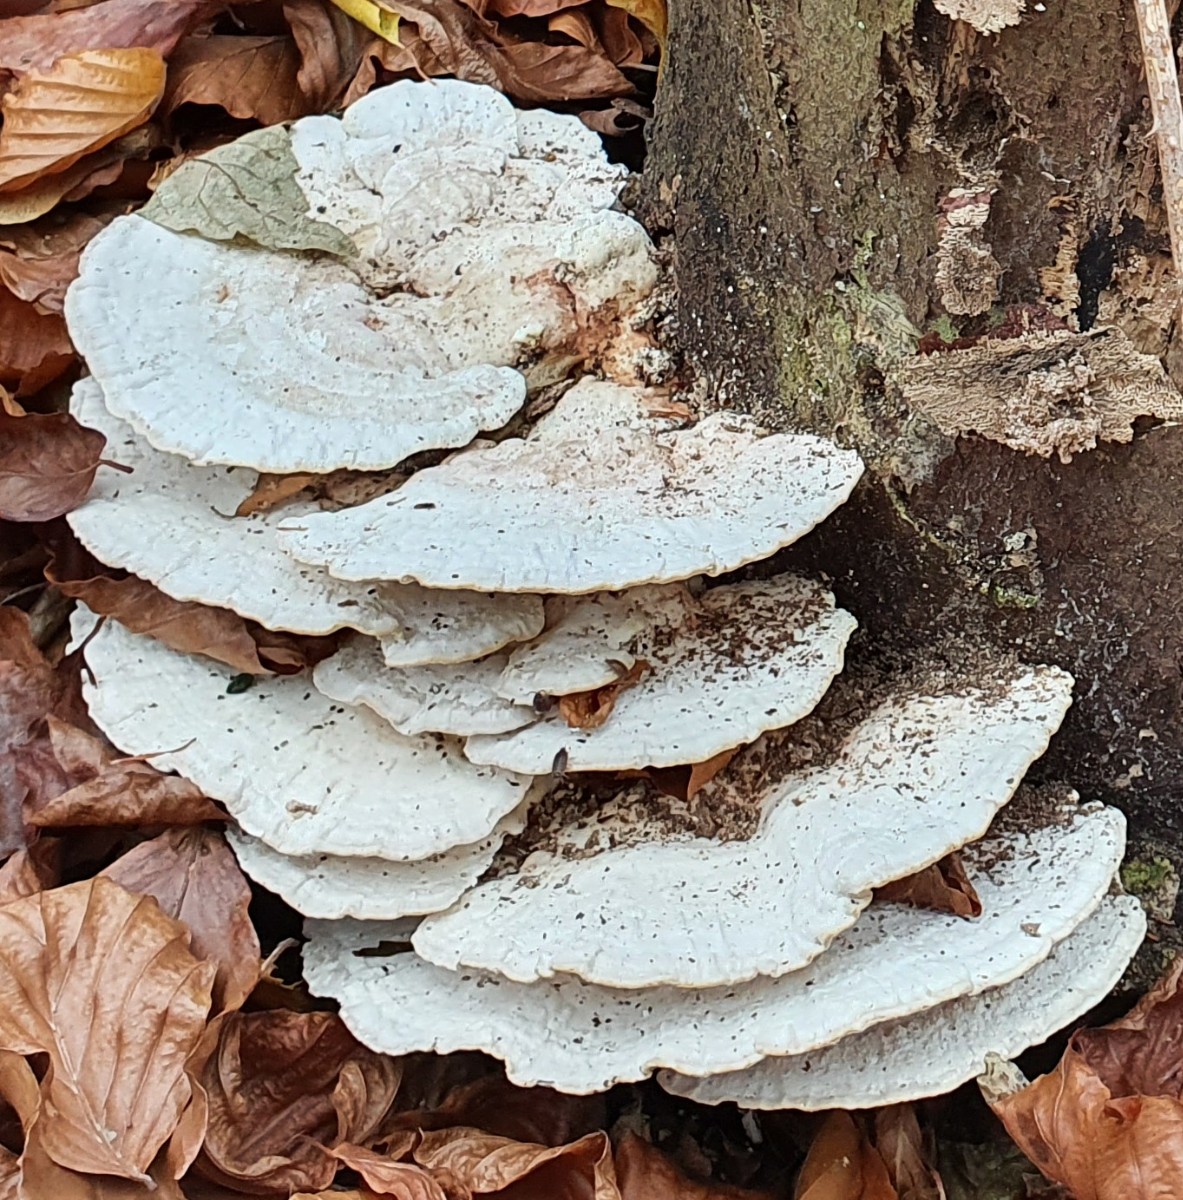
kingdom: Fungi
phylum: Basidiomycota
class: Agaricomycetes
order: Polyporales
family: Polyporaceae
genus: Trametes
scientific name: Trametes gibbosa
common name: puklet læderporesvamp
